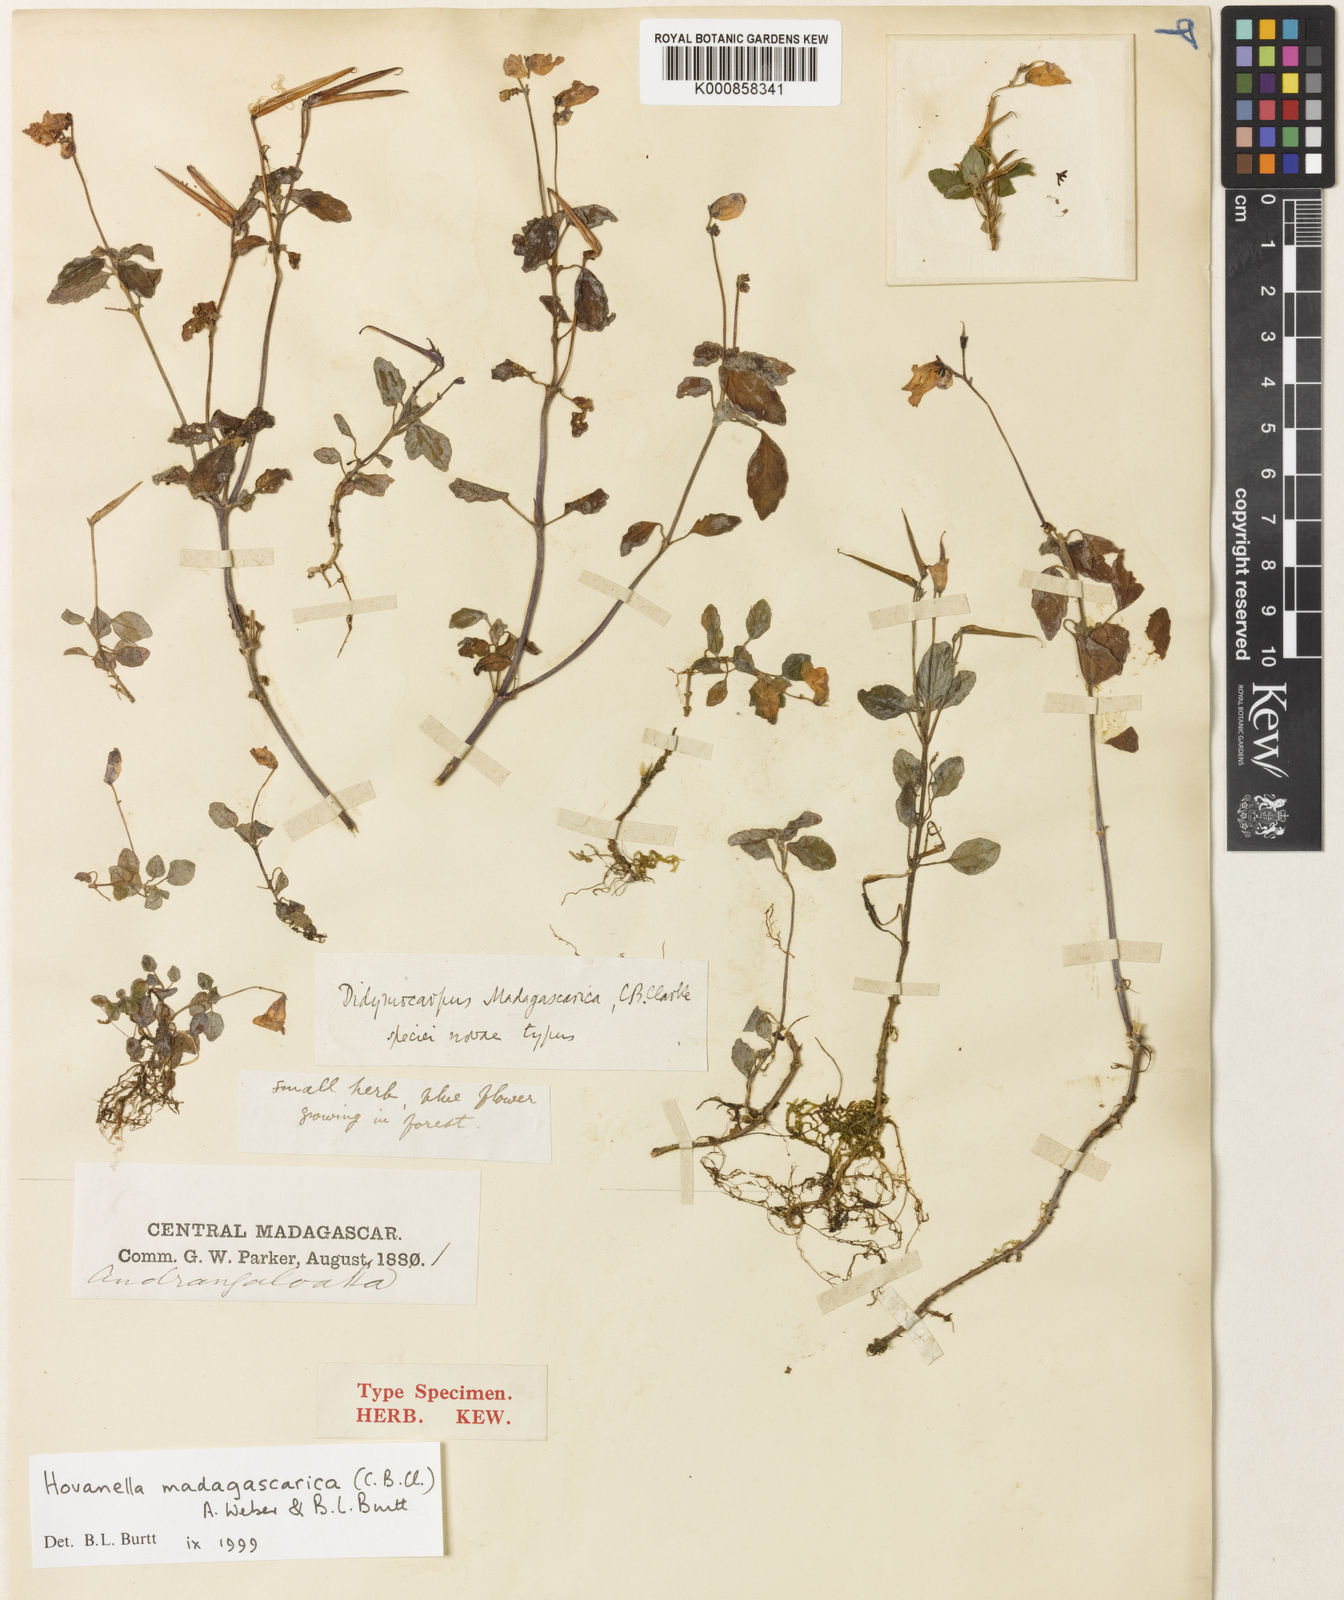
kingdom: Plantae
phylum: Tracheophyta
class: Magnoliopsida
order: Lamiales
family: Gesneriaceae
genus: Streptocarpus
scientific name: Streptocarpus madagascaricus
